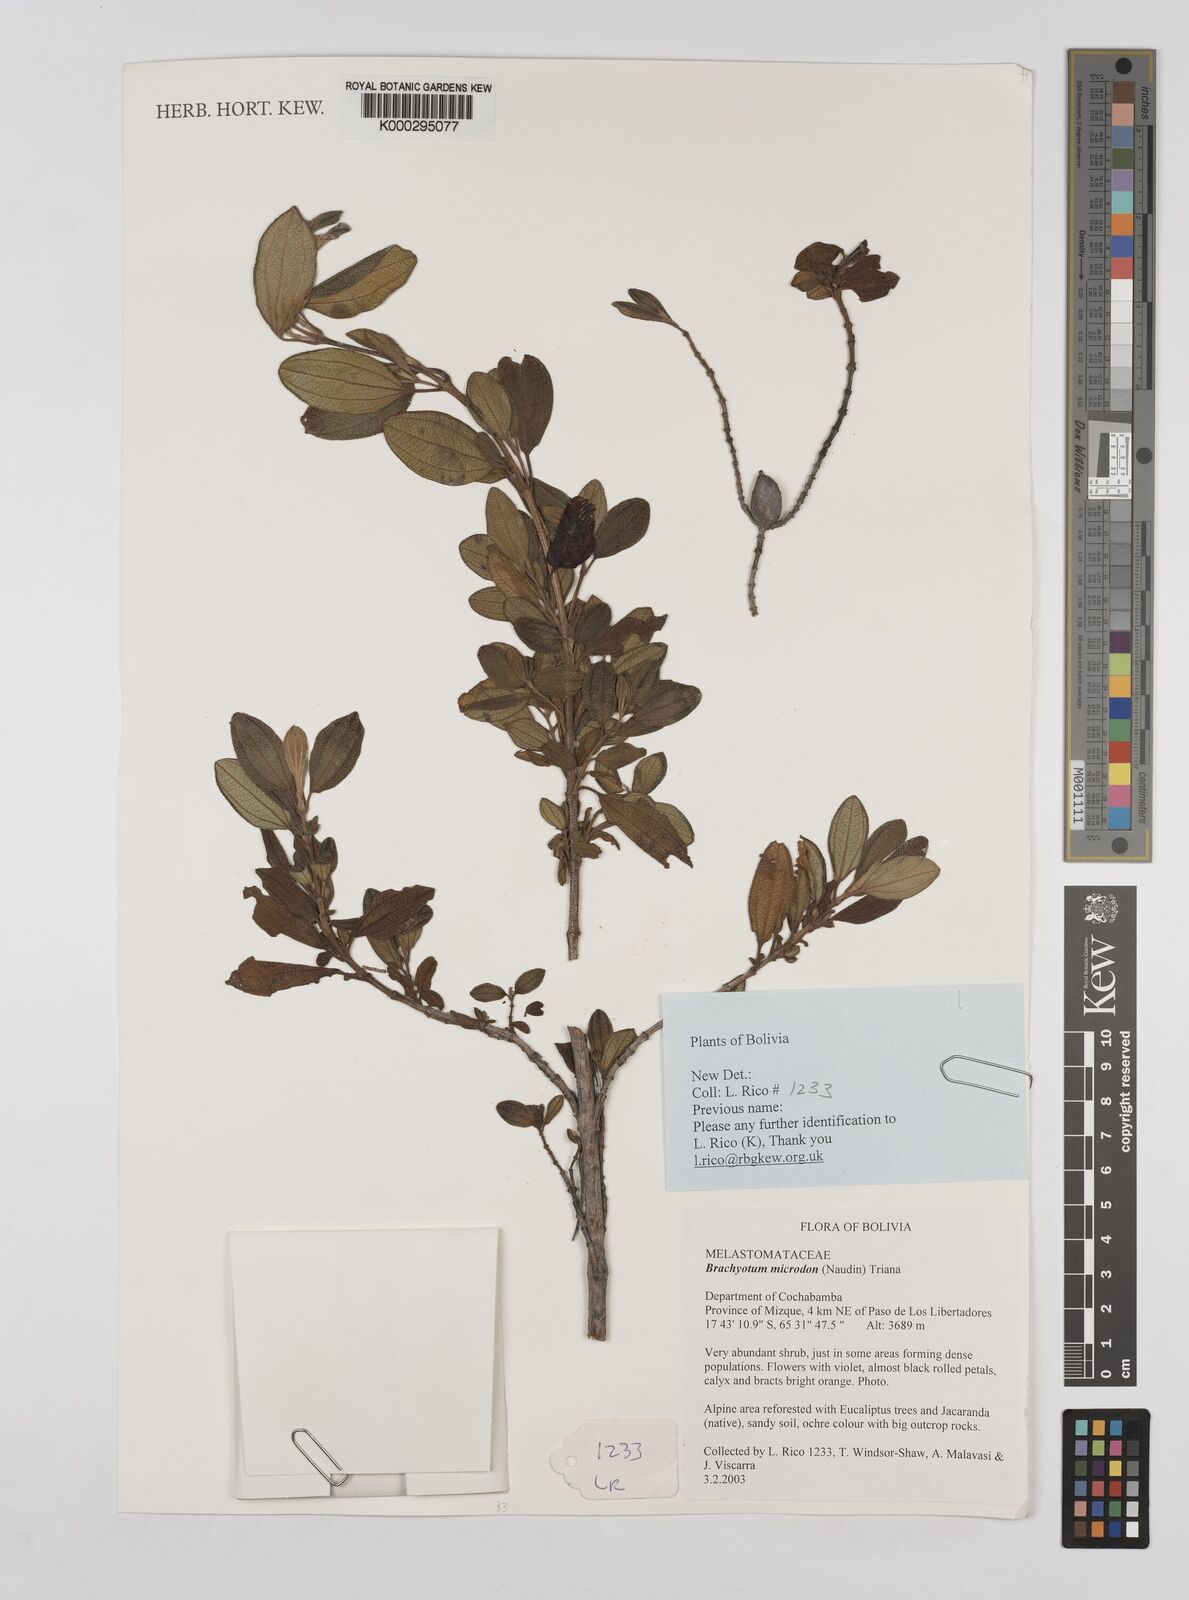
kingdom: Plantae
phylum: Tracheophyta
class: Magnoliopsida
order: Myrtales
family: Melastomataceae
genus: Brachyotum
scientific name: Brachyotum microdon
